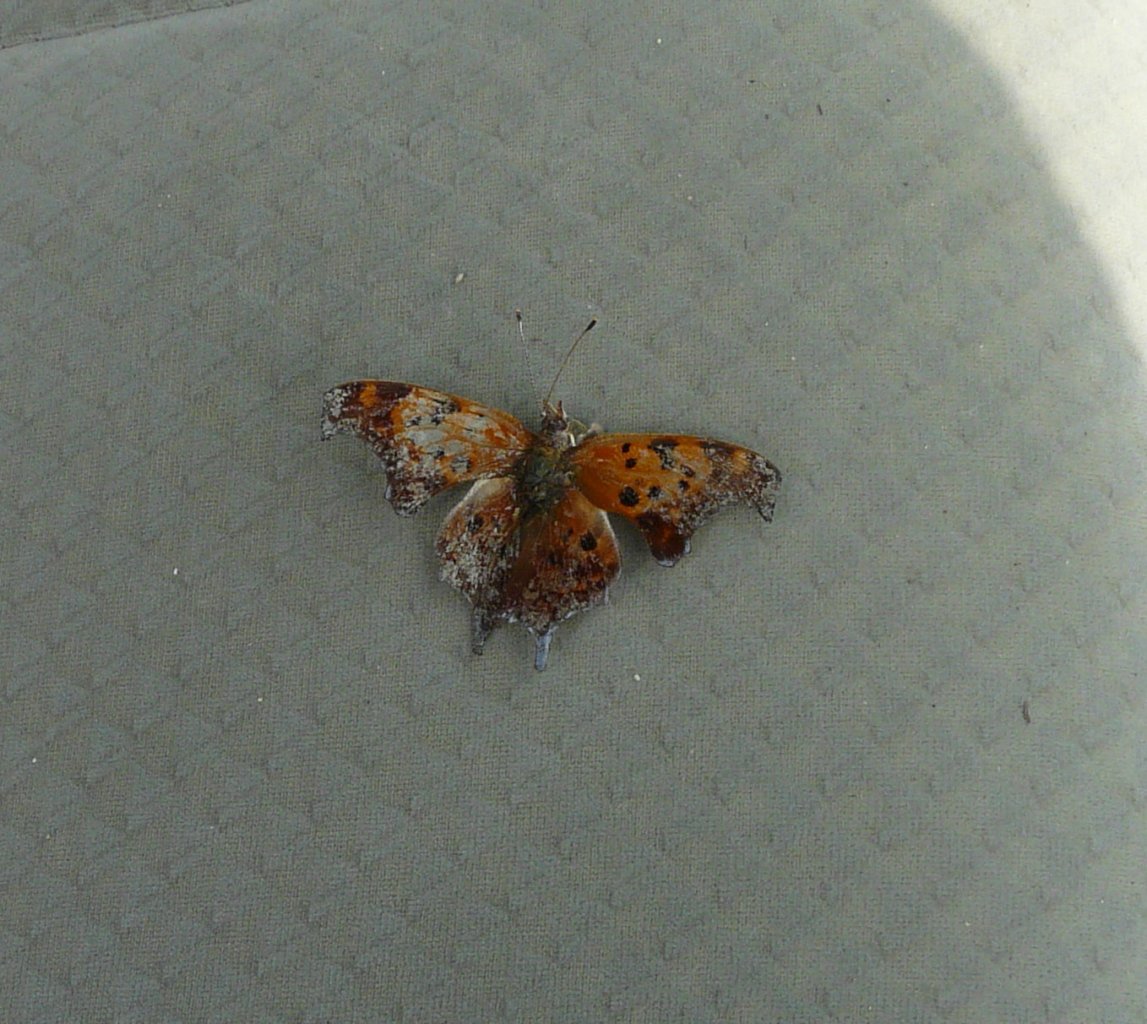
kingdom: Animalia
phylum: Arthropoda
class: Insecta
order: Lepidoptera
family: Nymphalidae
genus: Polygonia
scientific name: Polygonia interrogationis
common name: Question Mark
